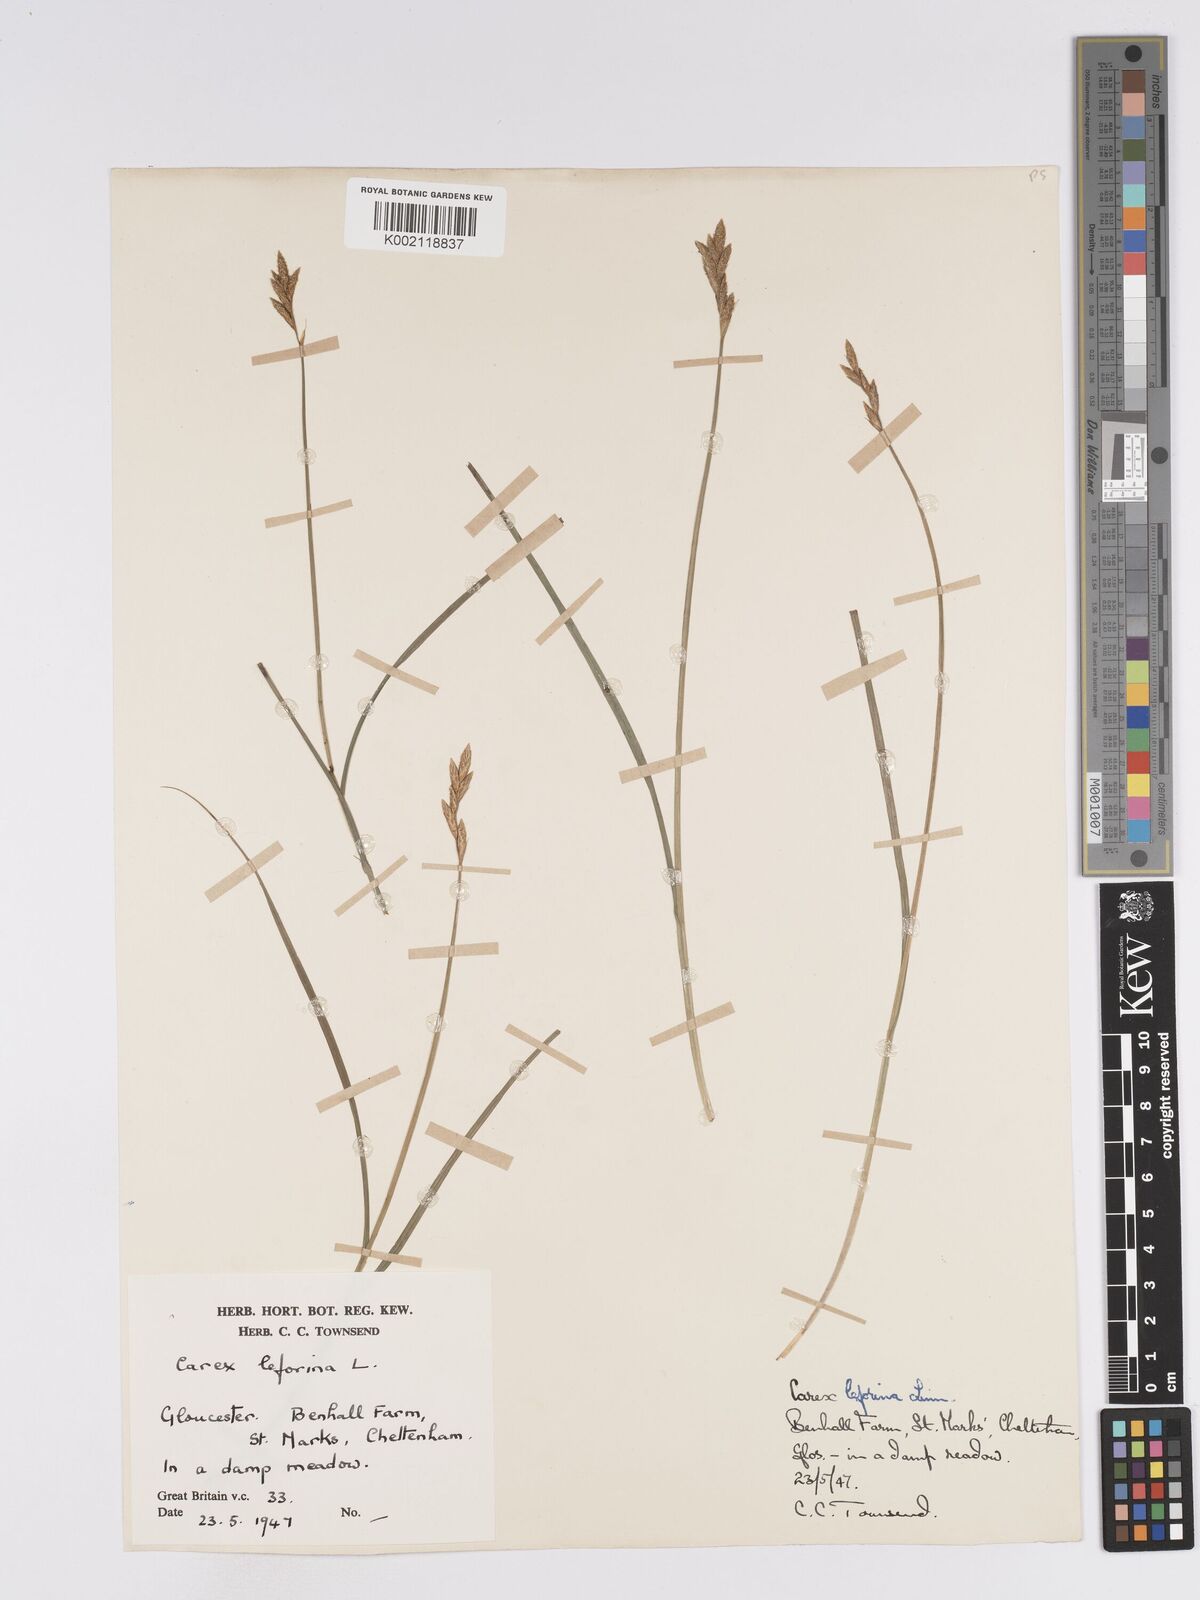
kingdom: Plantae
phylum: Tracheophyta
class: Liliopsida
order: Poales
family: Cyperaceae
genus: Carex
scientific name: Carex leporina
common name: Oval sedge
